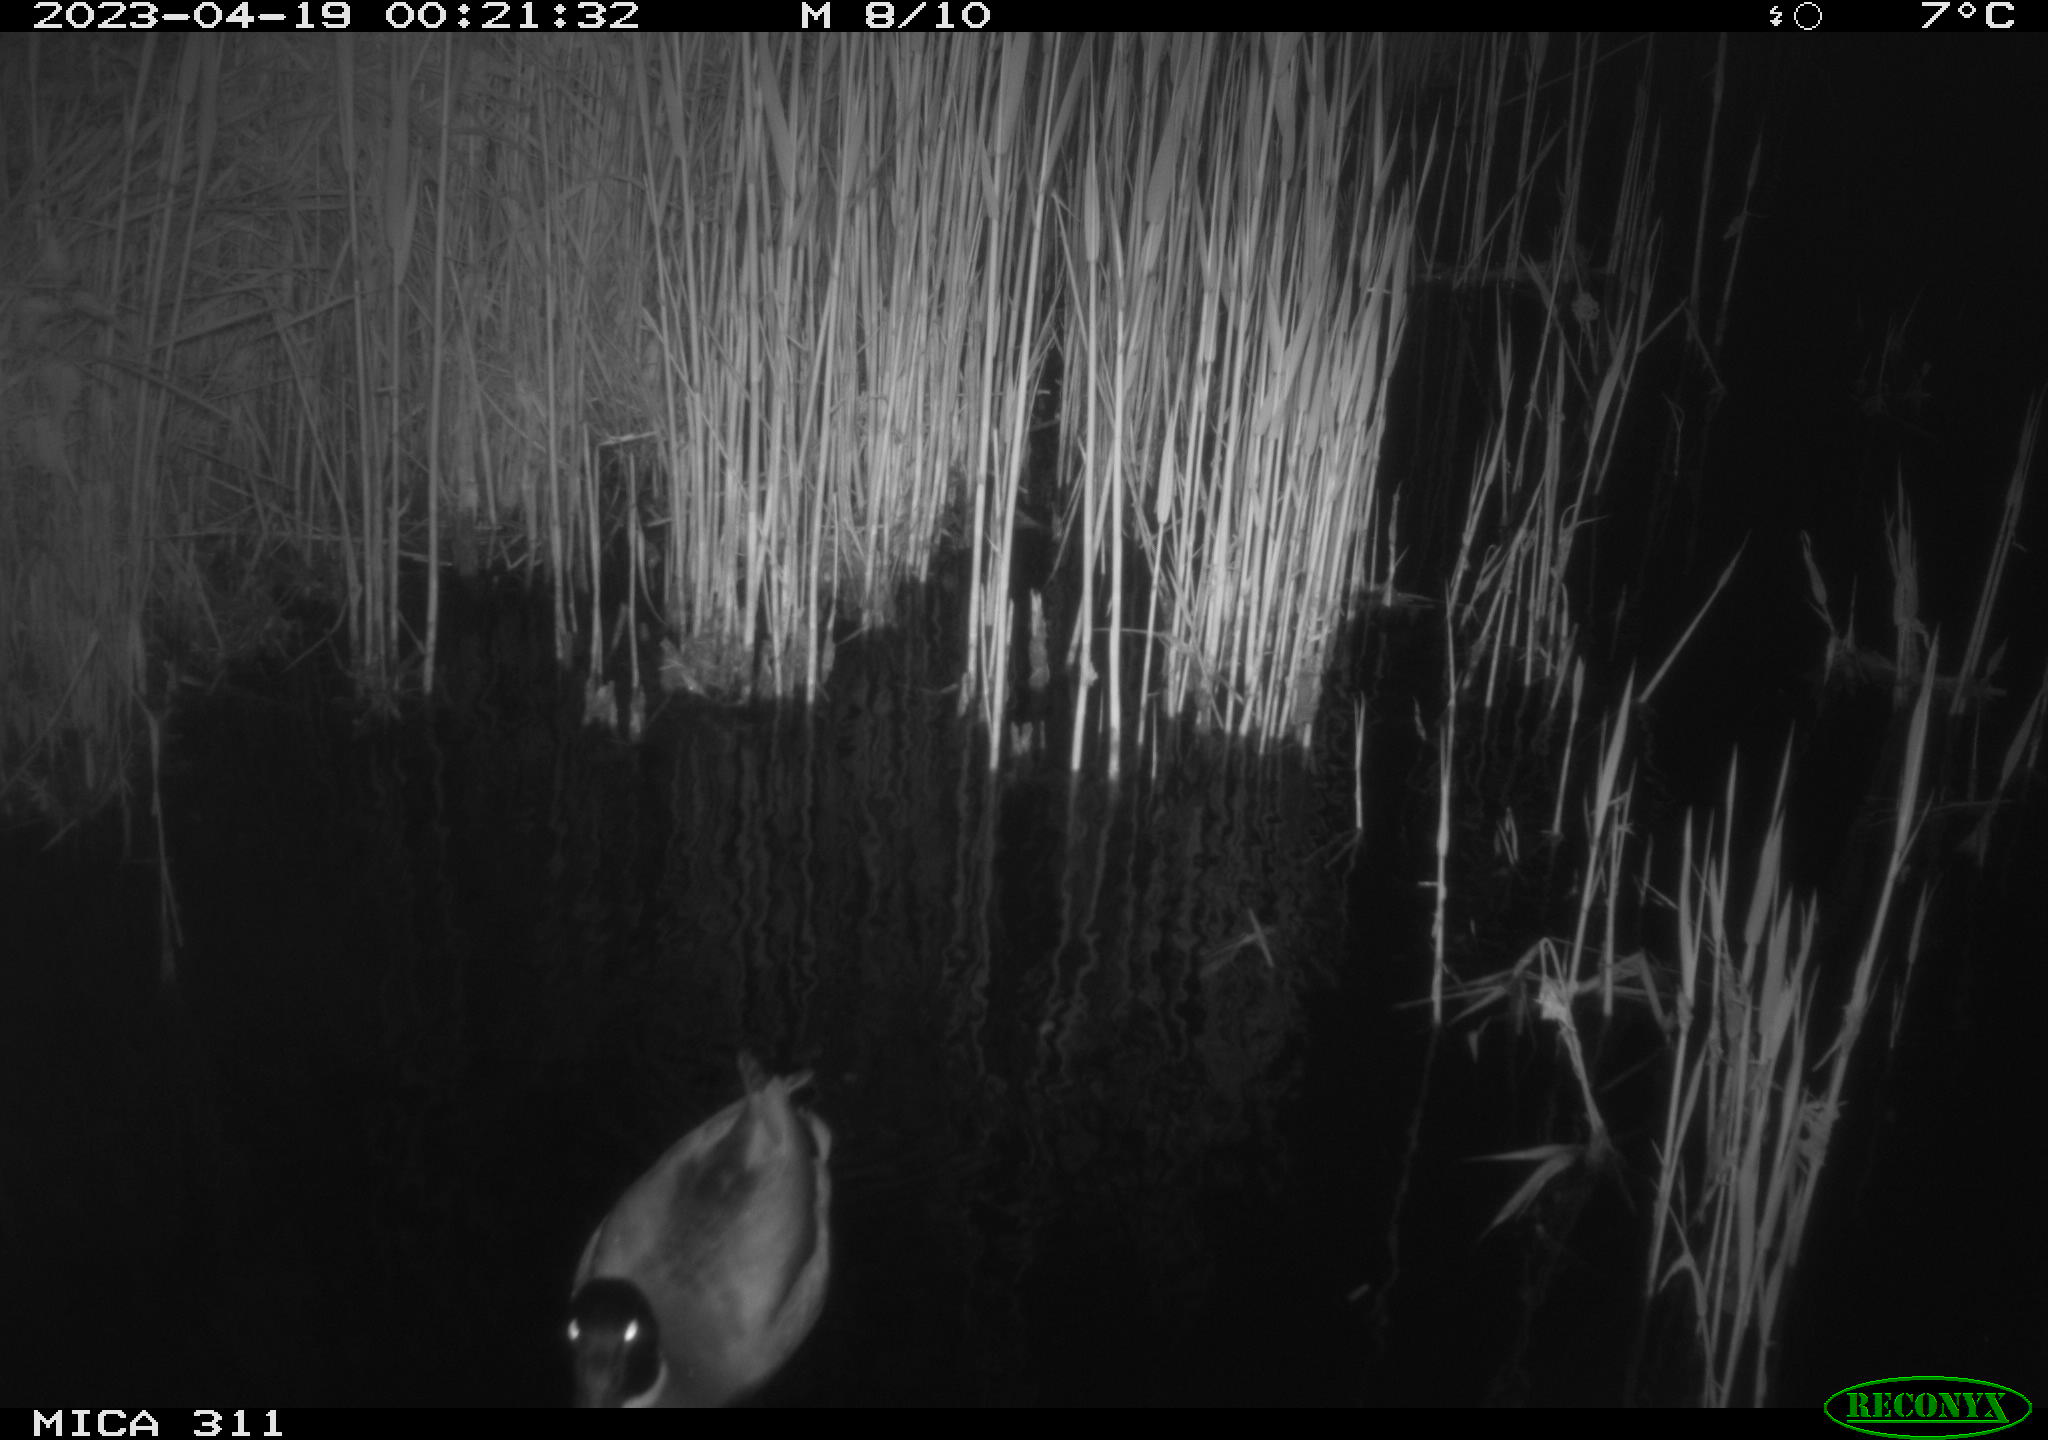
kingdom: Animalia
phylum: Chordata
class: Aves
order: Anseriformes
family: Anatidae
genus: Anas
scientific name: Anas
